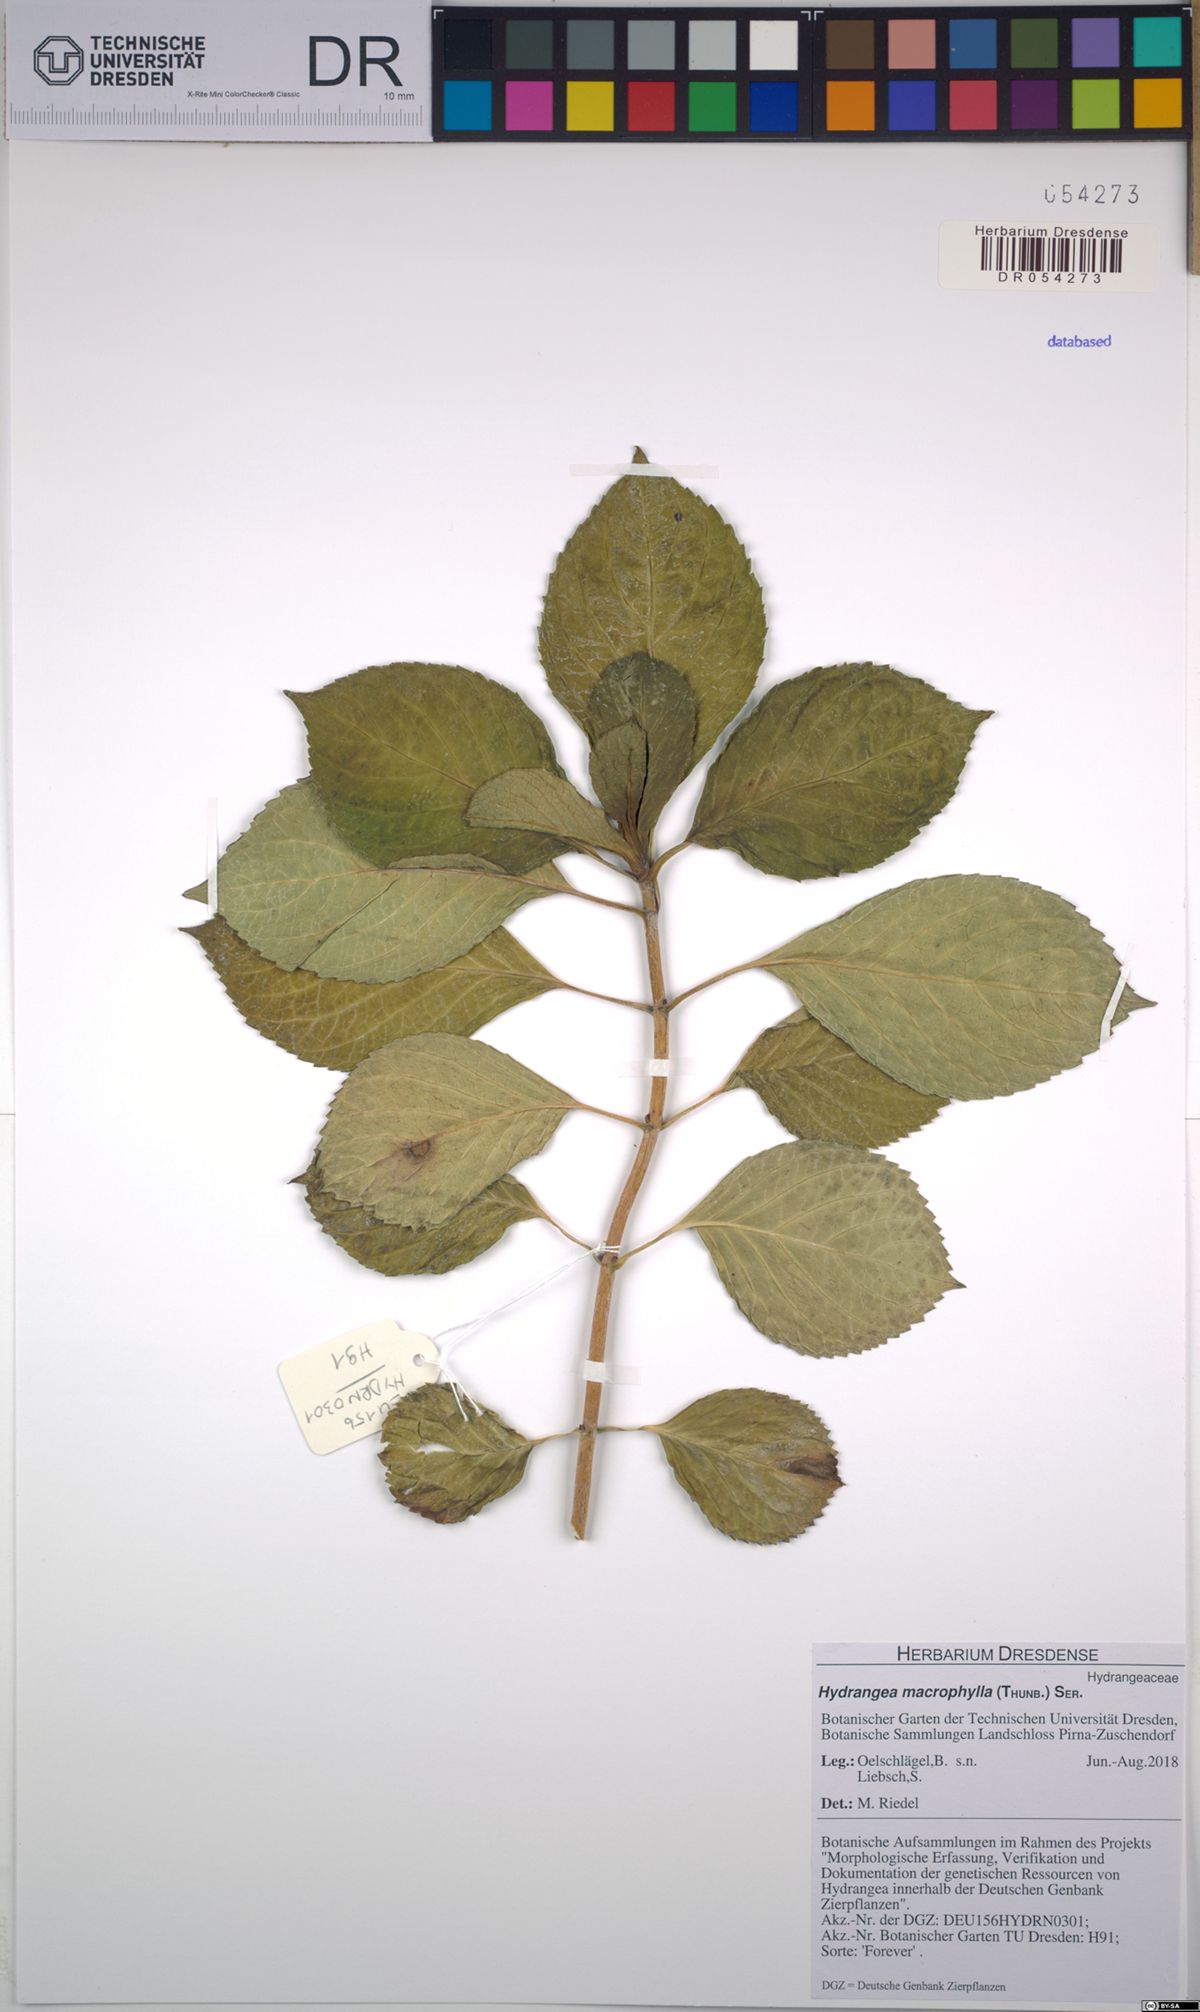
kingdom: Plantae
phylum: Tracheophyta
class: Magnoliopsida
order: Cornales
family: Hydrangeaceae
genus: Hydrangea
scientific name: Hydrangea macrophylla
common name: Hydrangea
